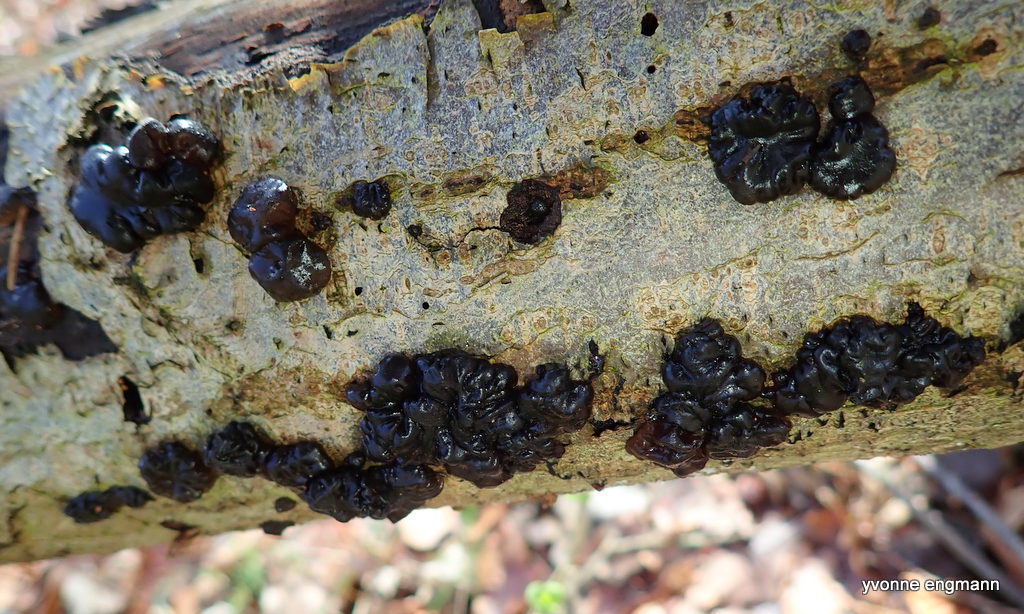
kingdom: Fungi
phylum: Basidiomycota
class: Agaricomycetes
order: Auriculariales
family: Auriculariaceae
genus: Exidia
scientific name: Exidia nigricans
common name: almindelig bævretop
